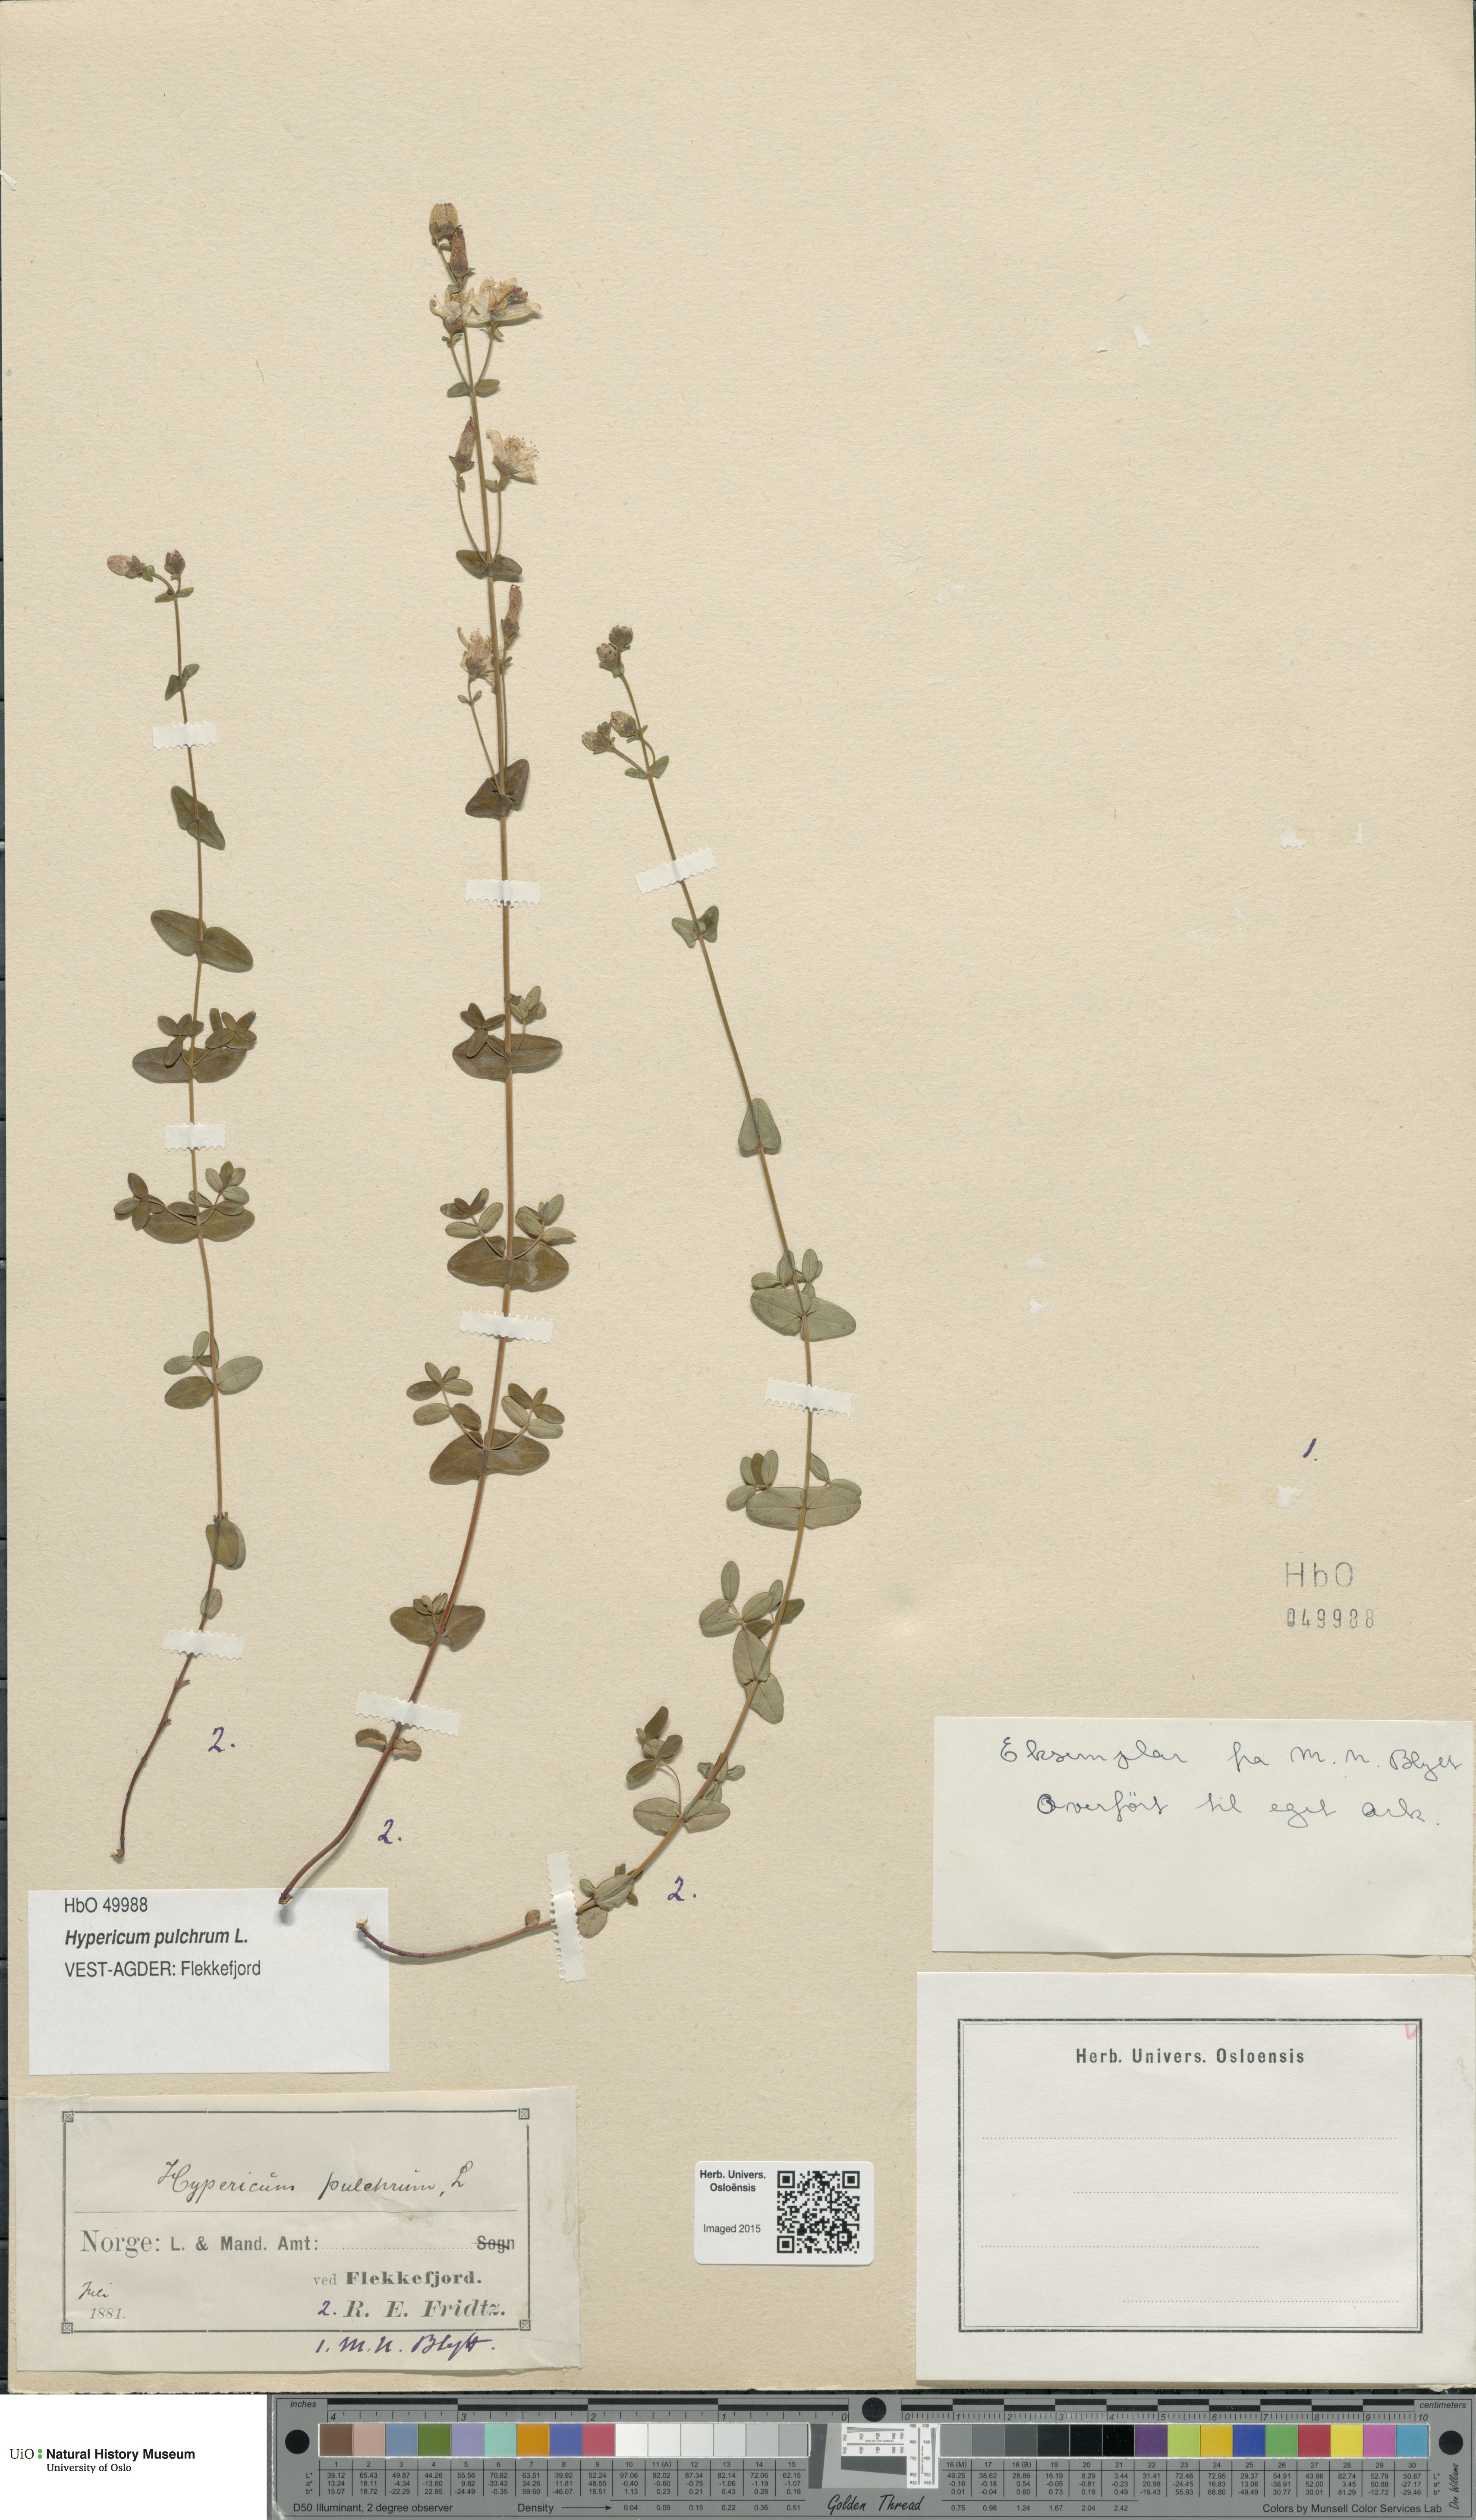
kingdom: Plantae
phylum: Tracheophyta
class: Magnoliopsida
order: Malpighiales
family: Hypericaceae
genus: Hypericum
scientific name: Hypericum pulchrum
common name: Slender st. john's-wort
